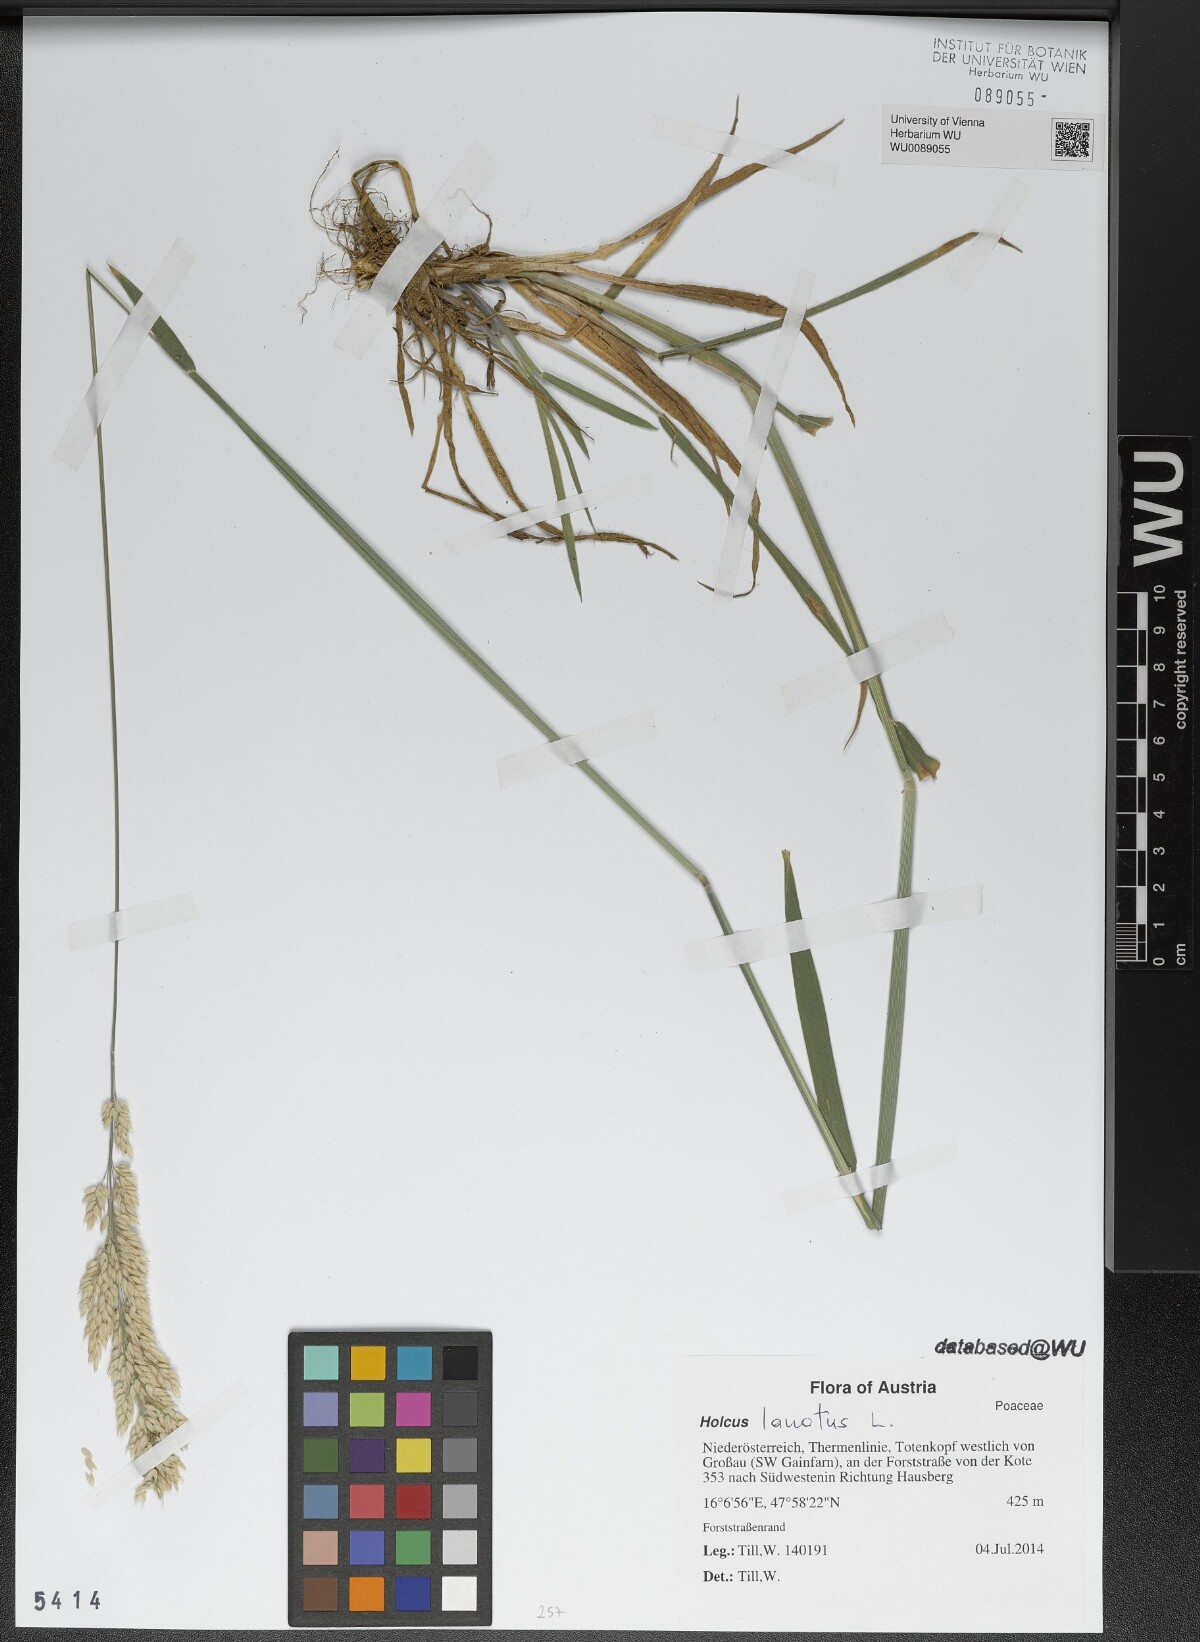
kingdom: Plantae
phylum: Tracheophyta
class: Liliopsida
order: Poales
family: Poaceae
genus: Holcus
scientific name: Holcus lanatus
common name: Yorkshire-fog
